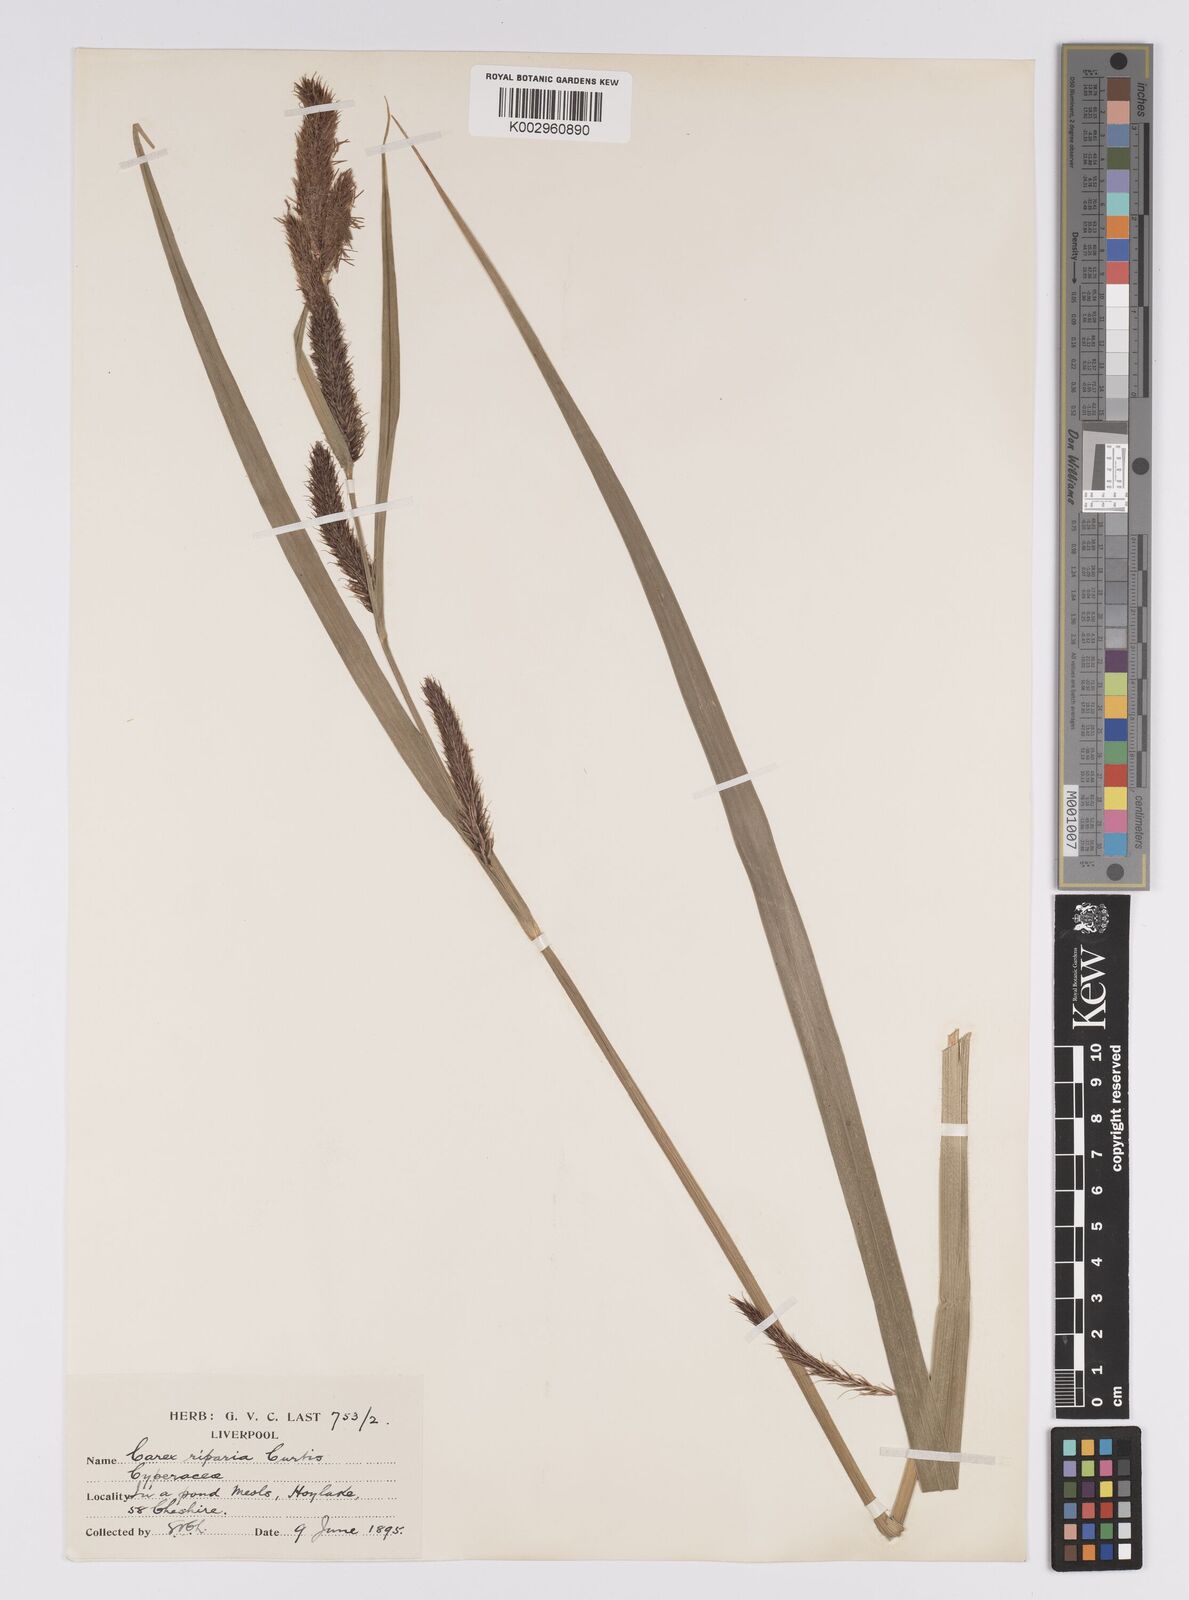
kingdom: Plantae
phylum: Tracheophyta
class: Liliopsida
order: Poales
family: Cyperaceae
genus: Carex
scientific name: Carex riparia
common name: Greater pond-sedge
